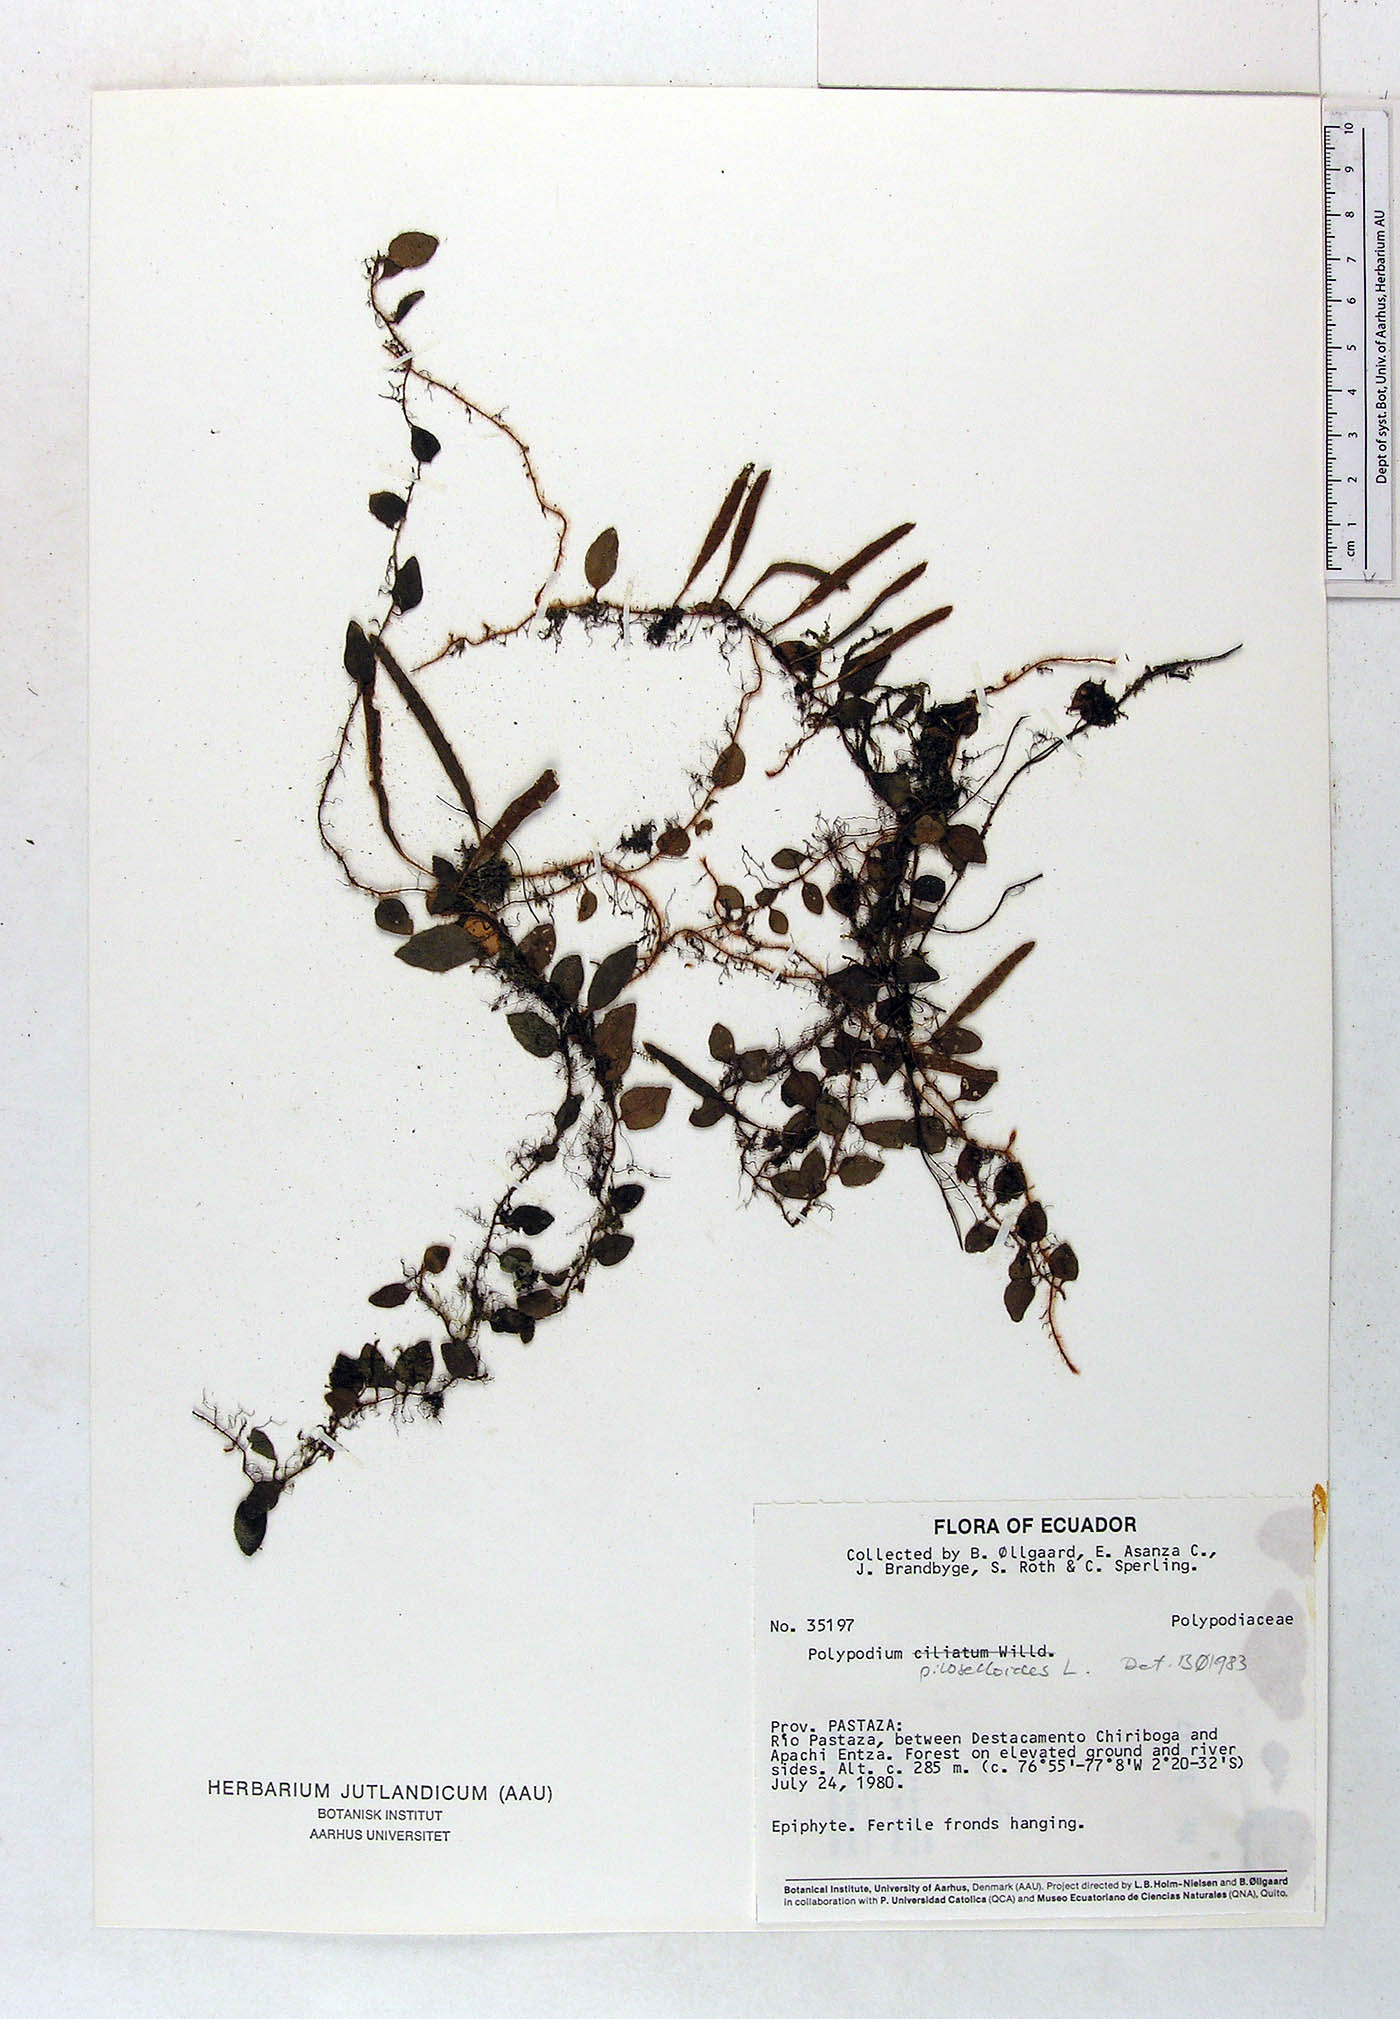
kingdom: Plantae
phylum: Tracheophyta
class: Polypodiopsida
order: Polypodiales
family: Polypodiaceae
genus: Microgramma
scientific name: Microgramma piloselloides
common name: Hairy snakefern
